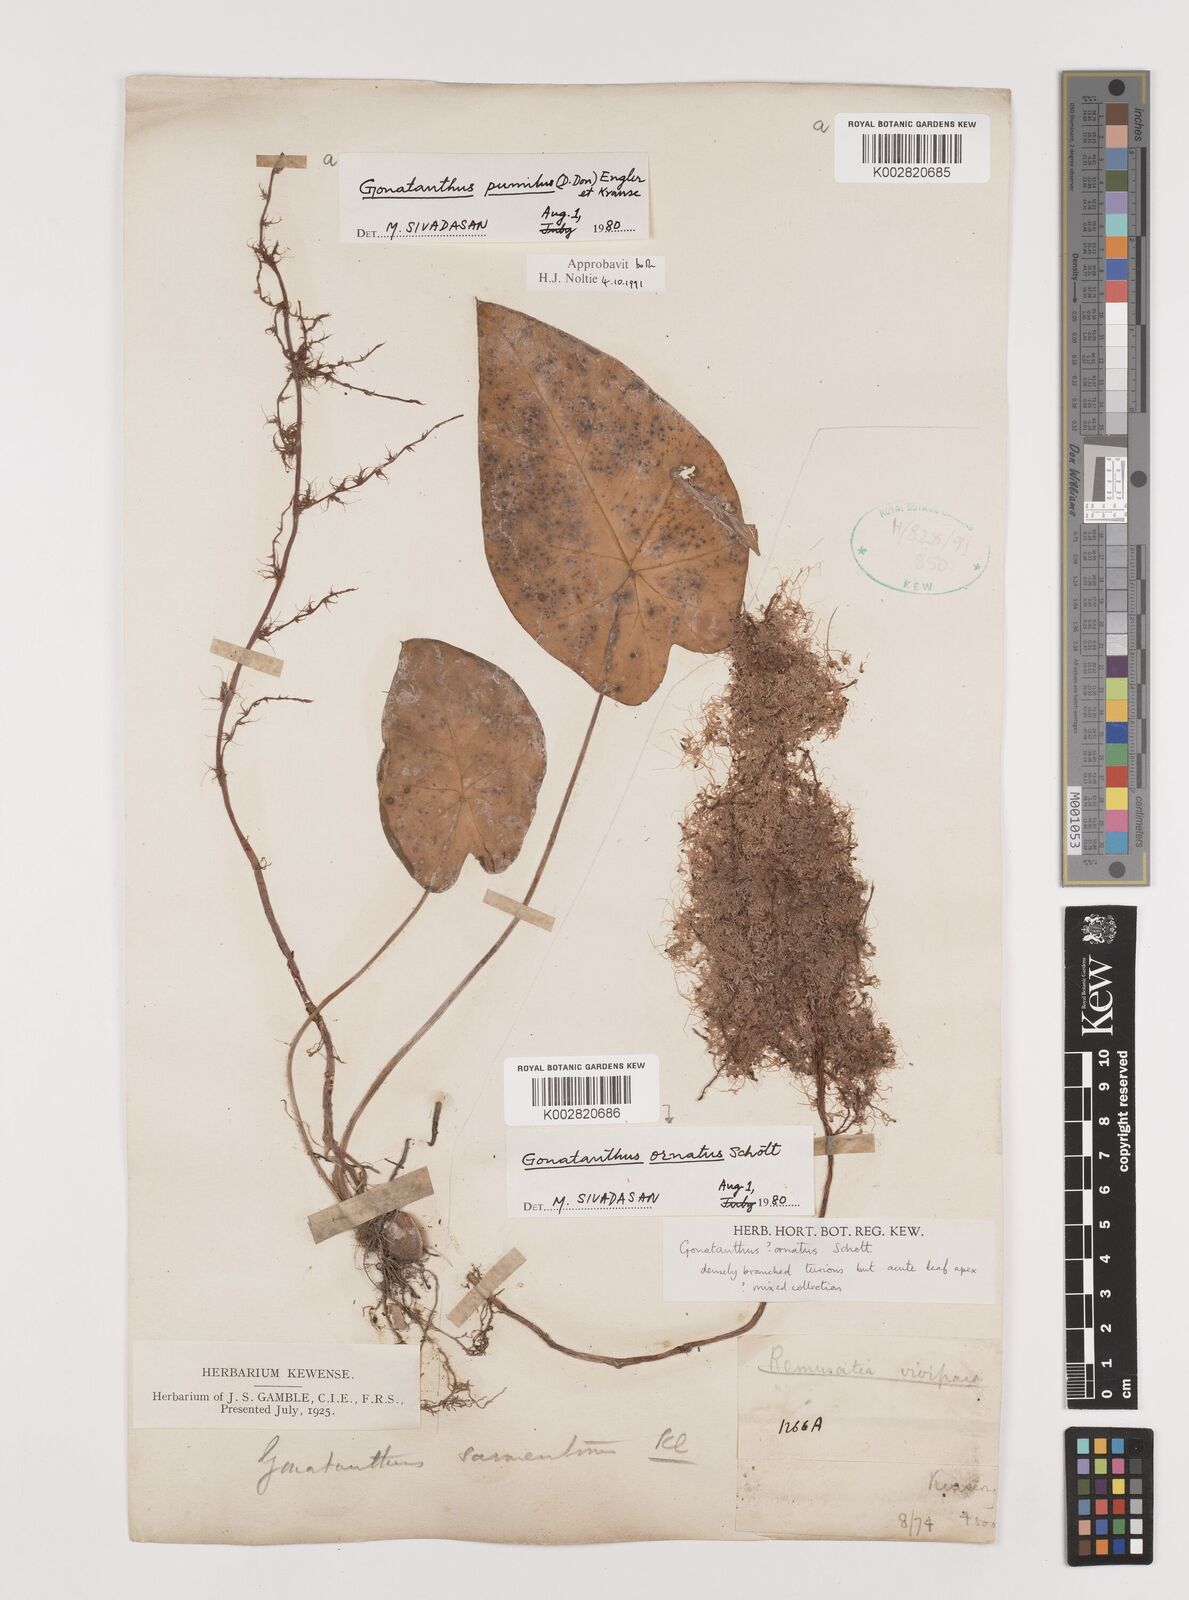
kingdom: Plantae
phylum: Tracheophyta
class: Liliopsida
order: Alismatales
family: Araceae
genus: Remusatia
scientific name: Remusatia pumila
